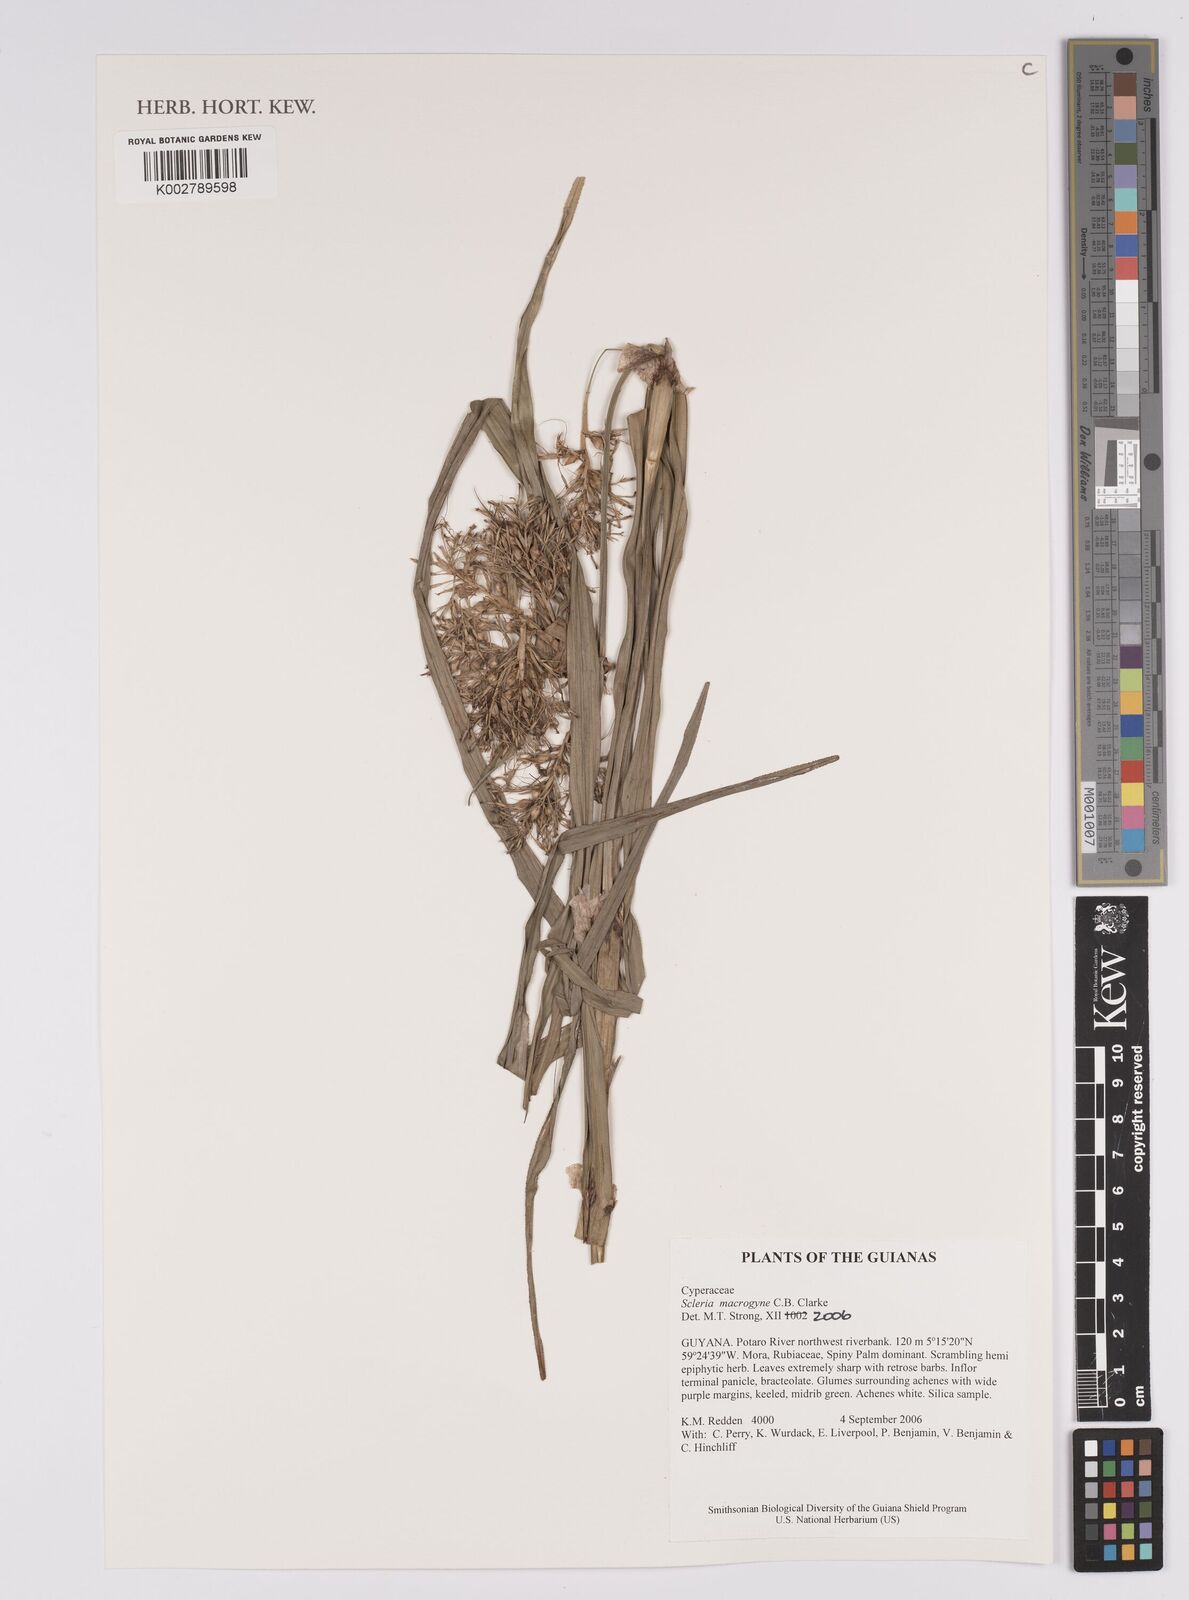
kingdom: Plantae
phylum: Tracheophyta
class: Liliopsida
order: Poales
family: Cyperaceae
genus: Scleria
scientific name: Scleria macrogyne
